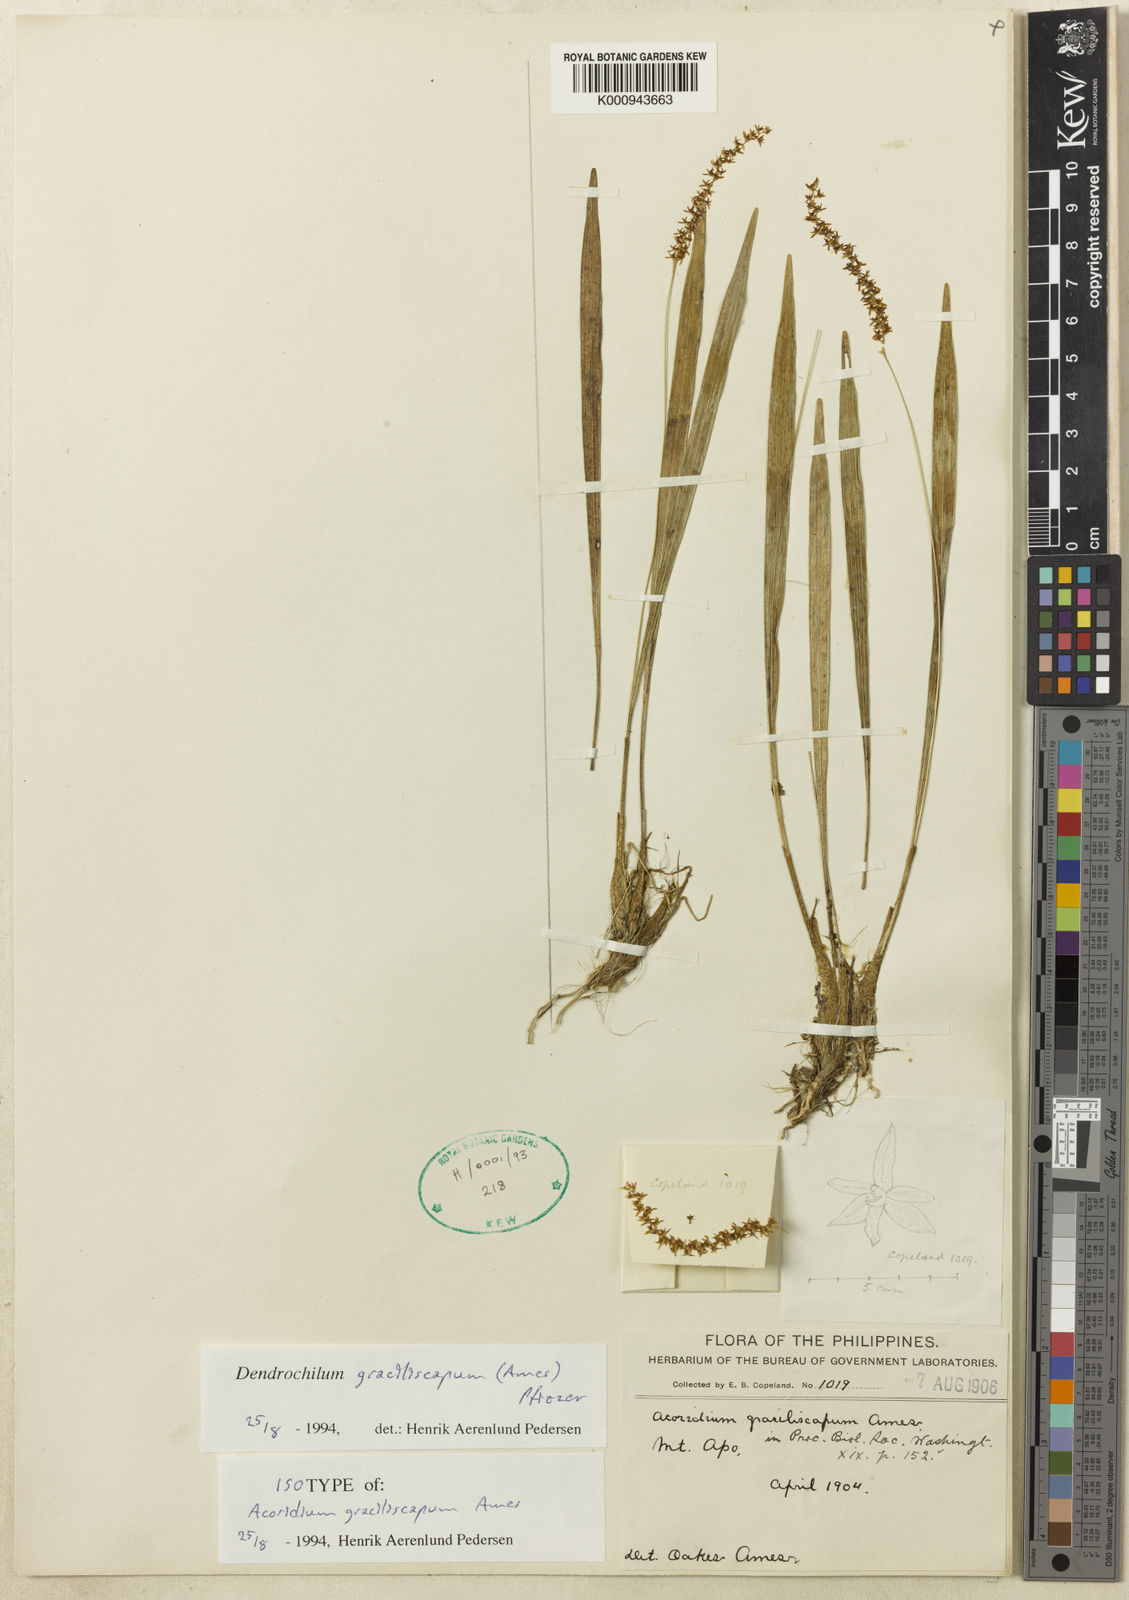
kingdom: Plantae
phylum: Tracheophyta
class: Liliopsida
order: Asparagales
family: Orchidaceae
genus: Coelogyne
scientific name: Coelogyne graciliscapa
